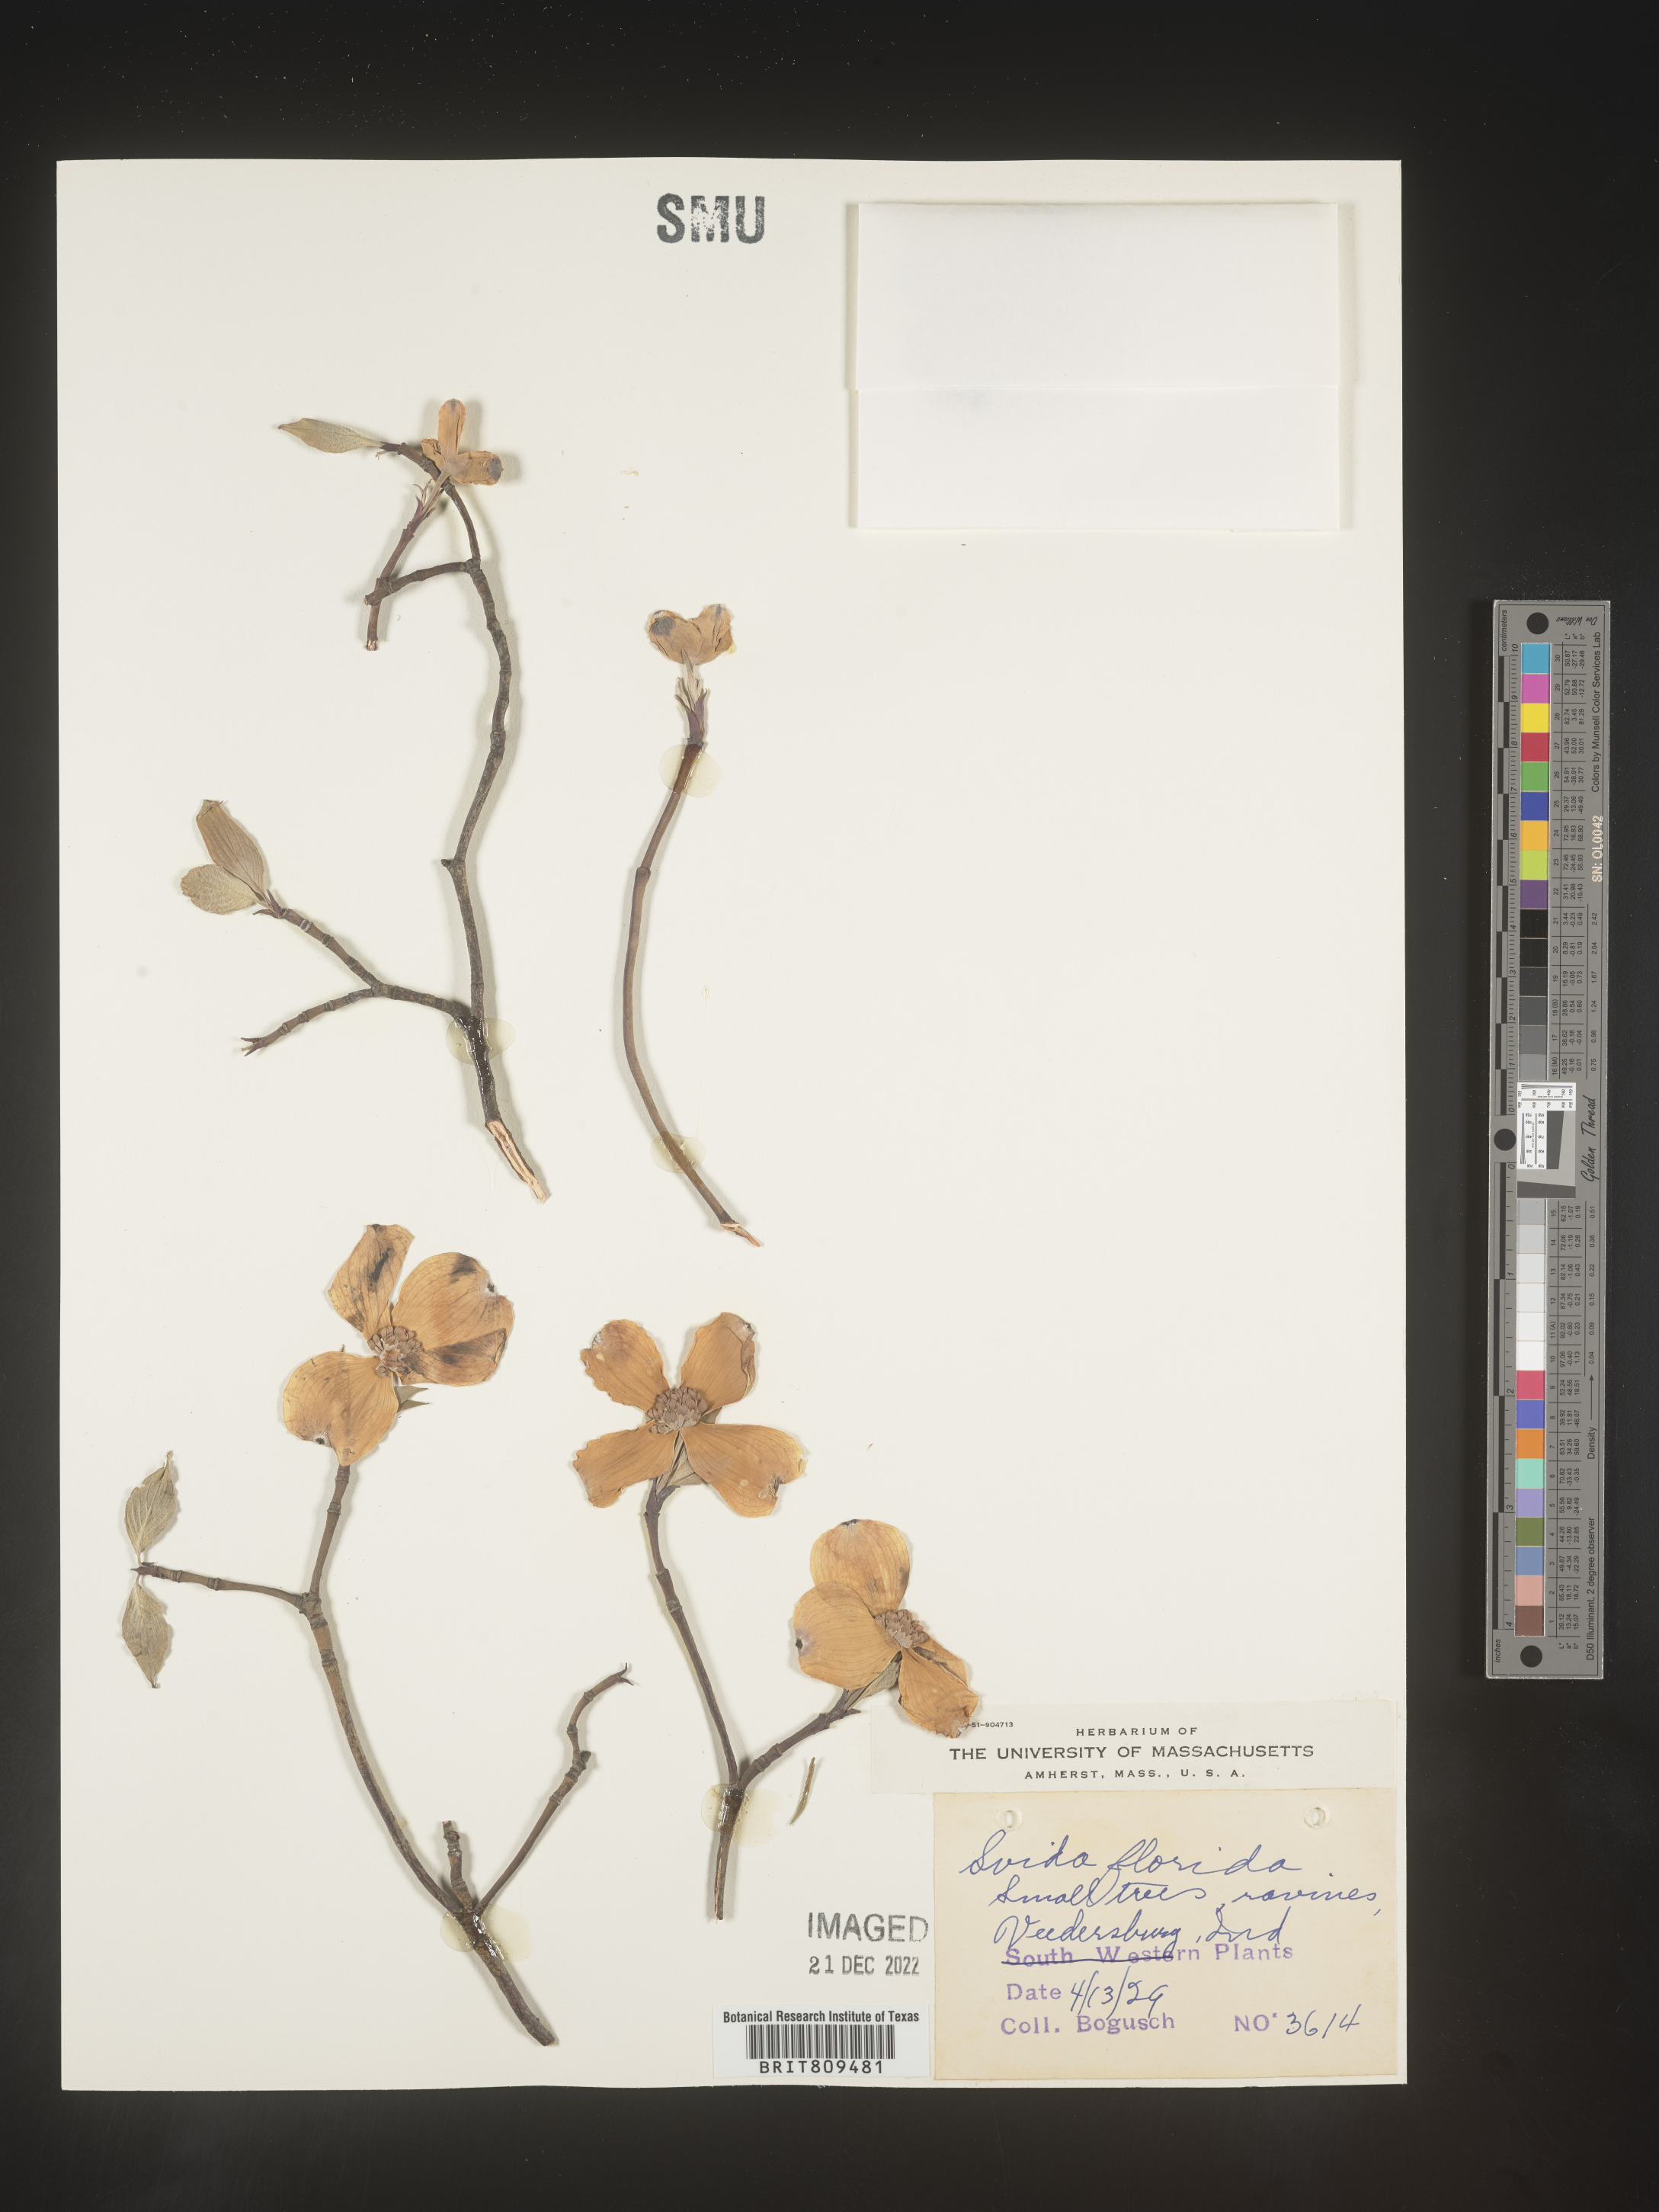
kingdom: Plantae
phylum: Tracheophyta
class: Magnoliopsida
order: Cornales
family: Cornaceae
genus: Cornus
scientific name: Cornus florida
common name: Flowering dogwood
